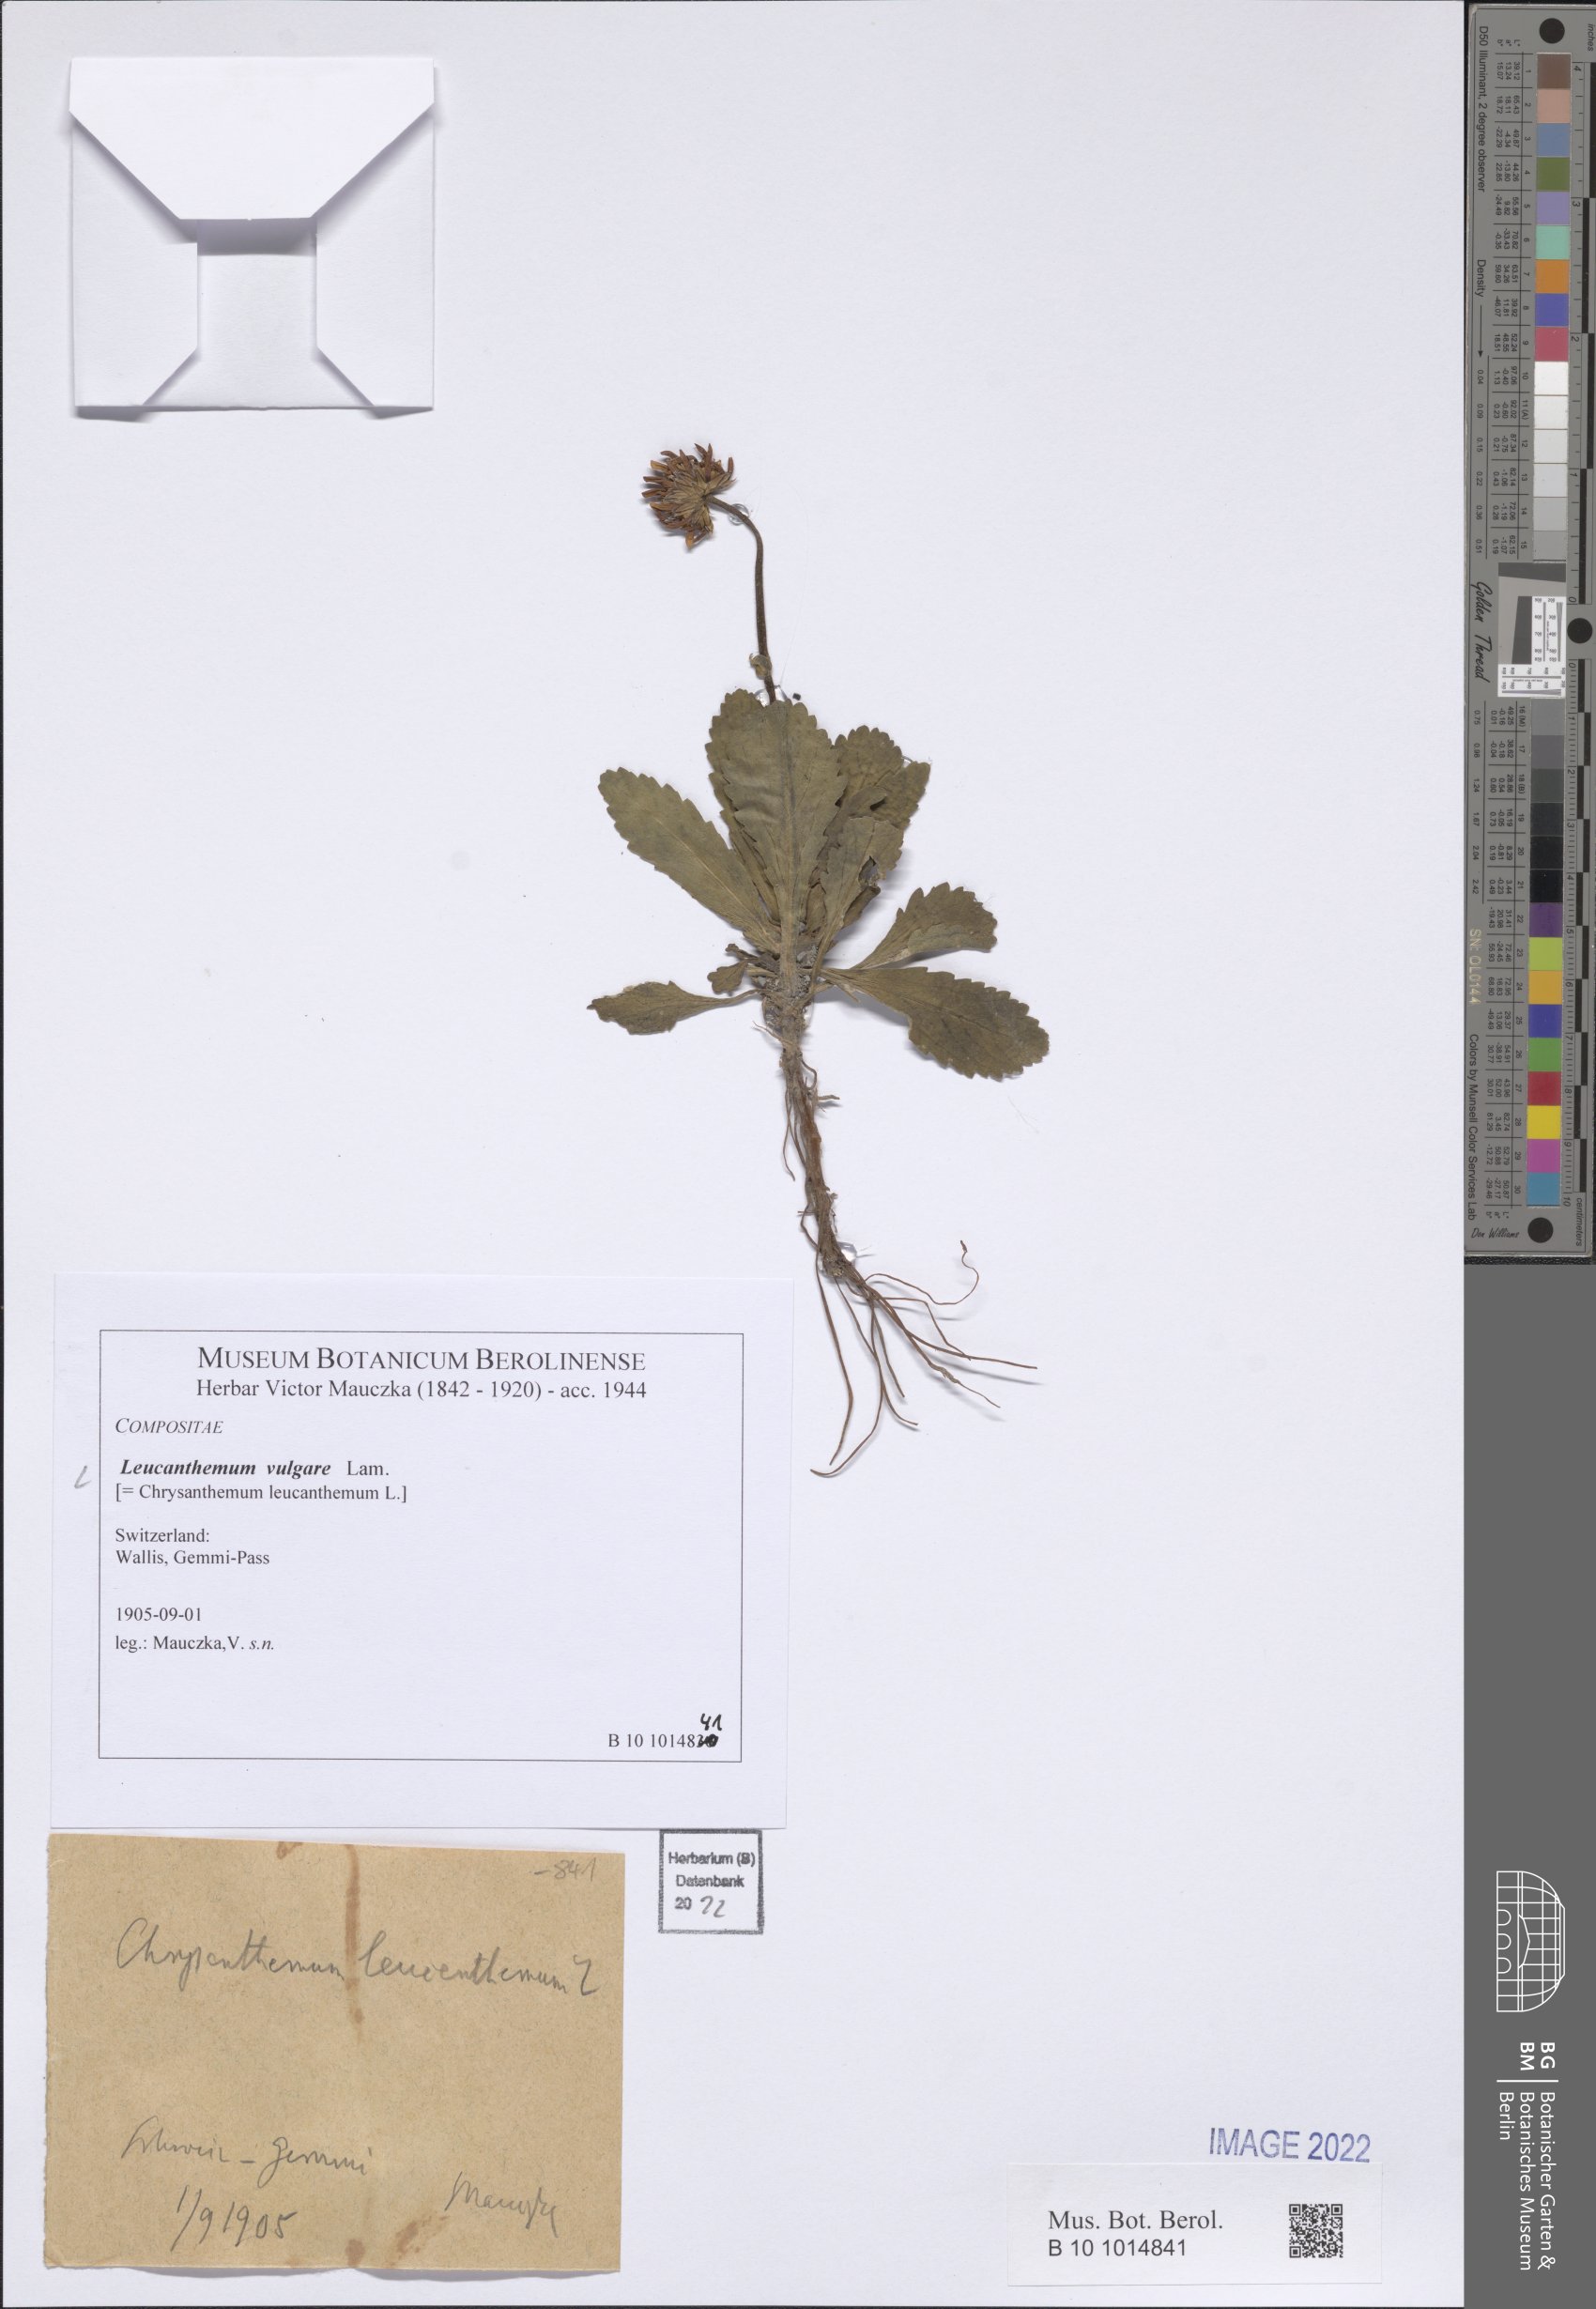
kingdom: Plantae
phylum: Tracheophyta
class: Magnoliopsida
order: Asterales
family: Asteraceae
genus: Leucanthemum
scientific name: Leucanthemum ircutianum
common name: Daisy
